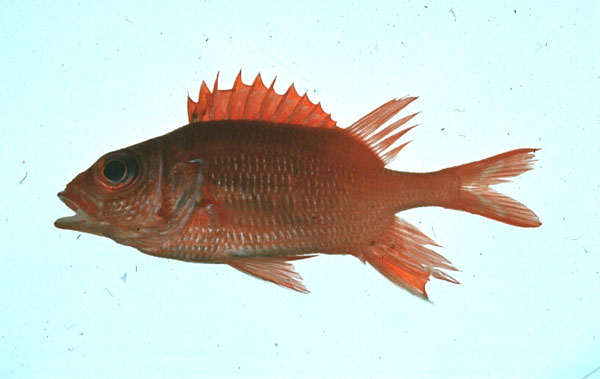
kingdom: Animalia
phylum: Chordata
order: Beryciformes
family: Holocentridae
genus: Sargocentron
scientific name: Sargocentron caudimaculatum
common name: Fanfin soldier
